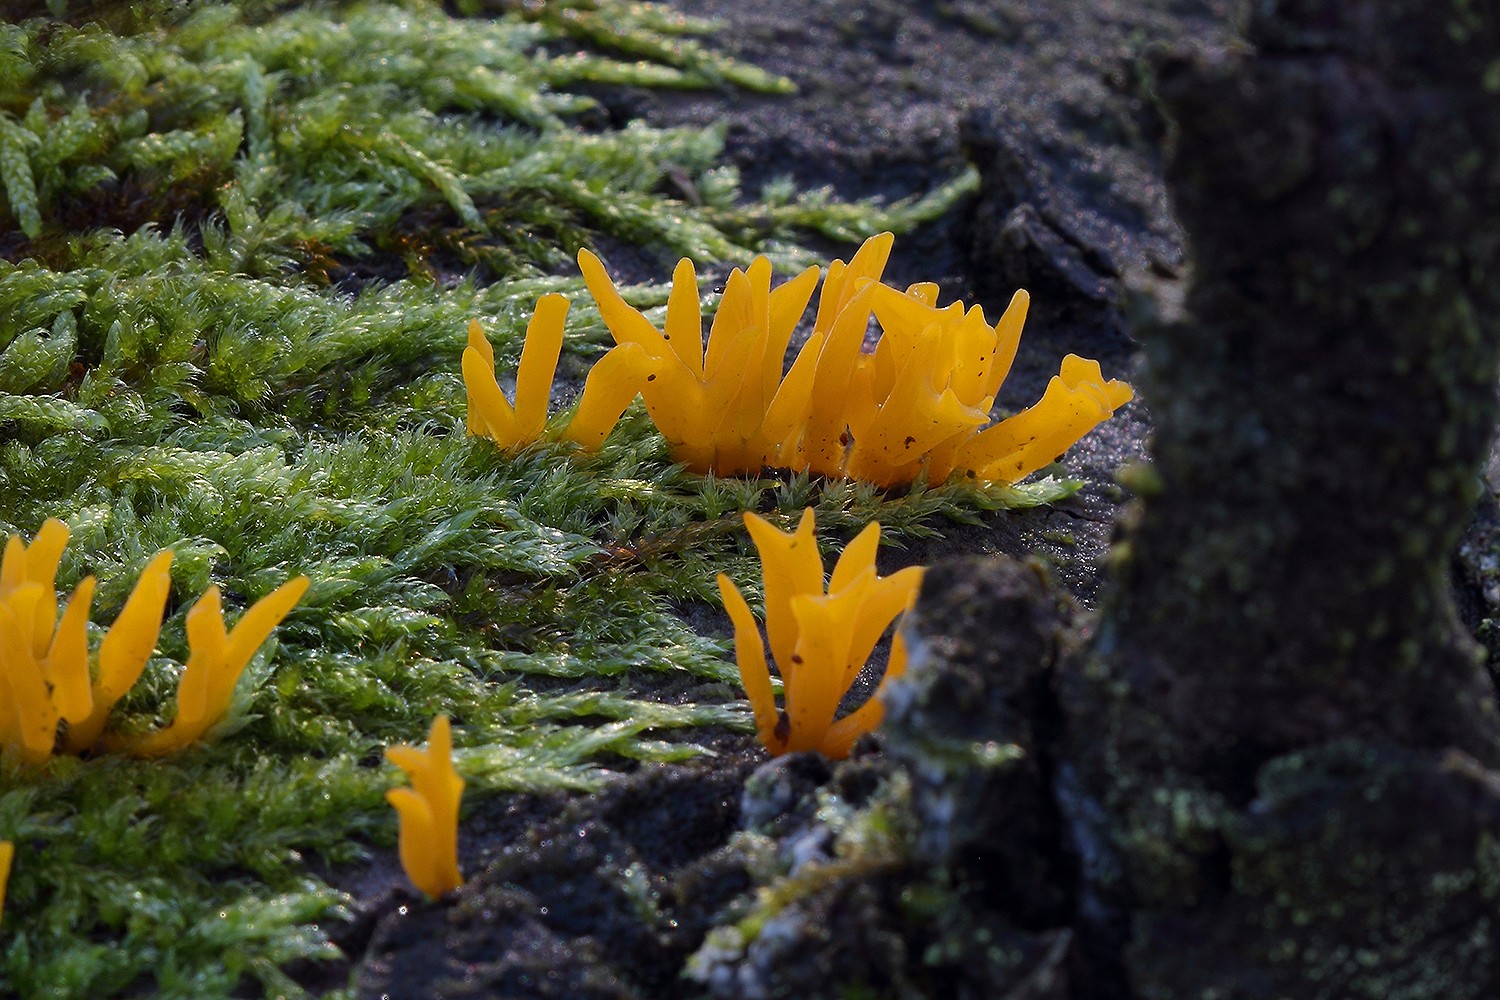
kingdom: Fungi
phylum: Basidiomycota
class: Dacrymycetes
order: Dacrymycetales
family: Dacrymycetaceae
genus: Calocera
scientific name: Calocera furcata
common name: fyrre-guldgaffel
